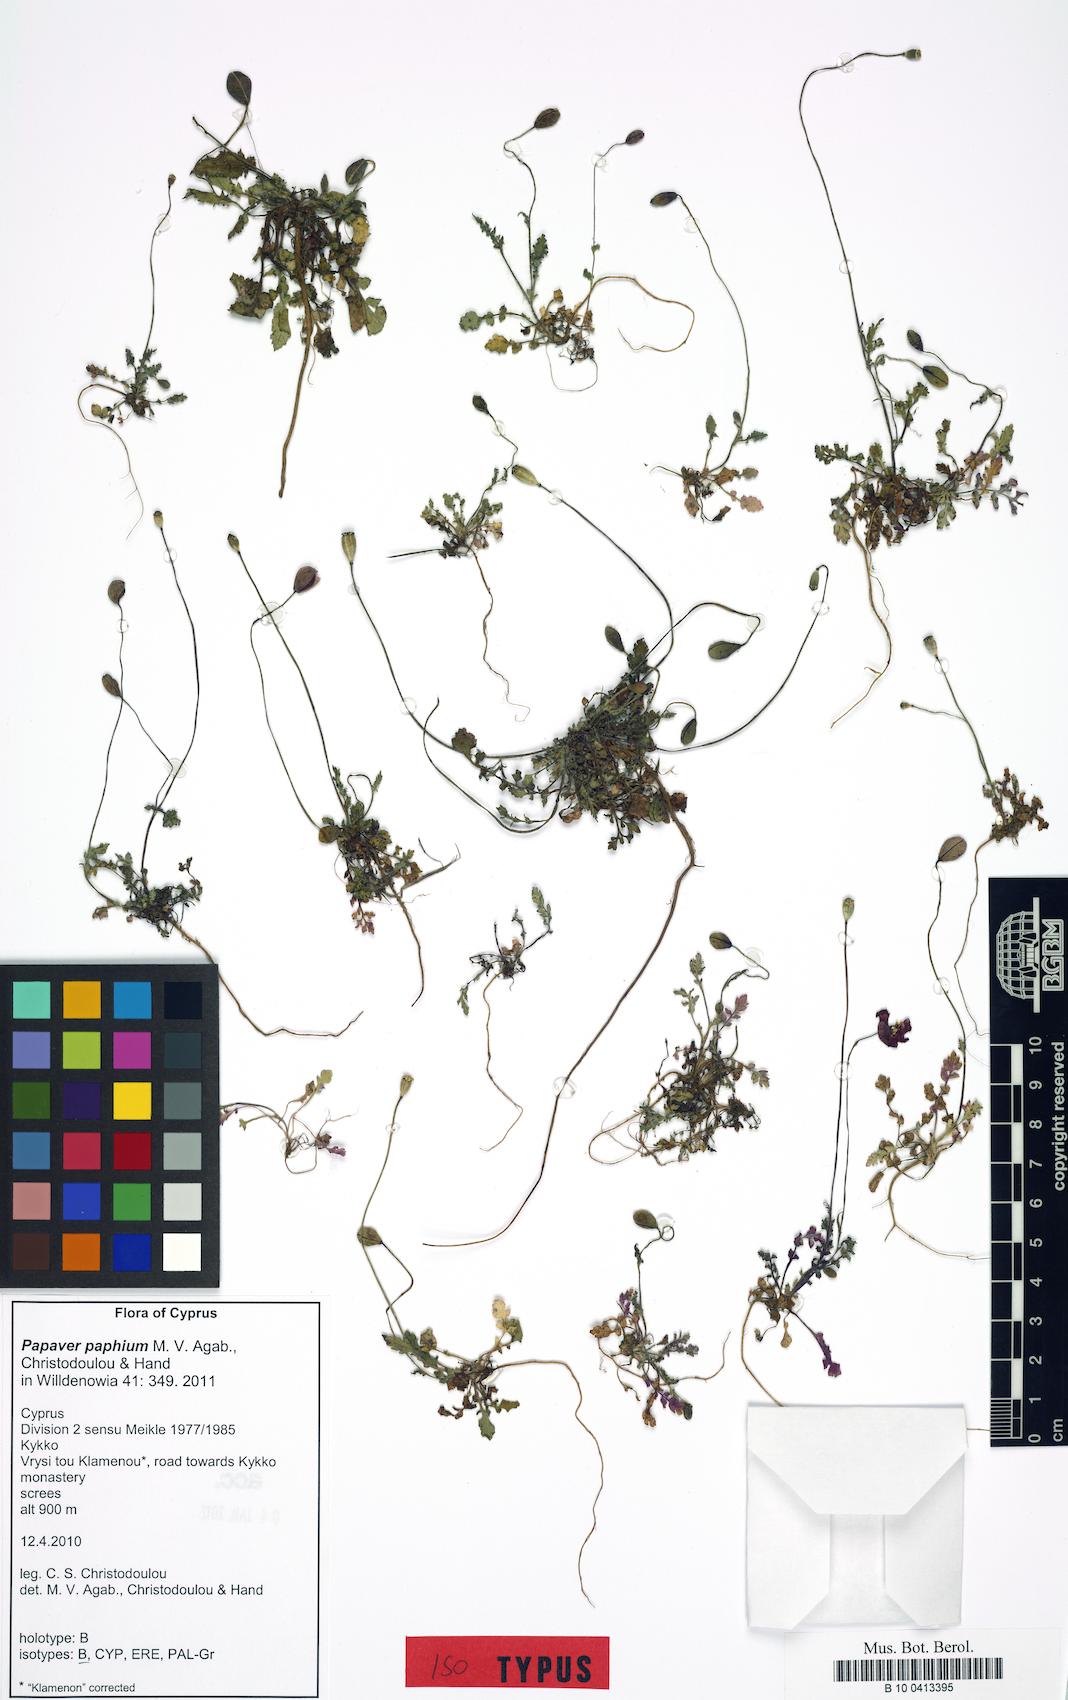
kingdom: Plantae
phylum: Tracheophyta
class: Magnoliopsida
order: Ranunculales
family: Papaveraceae
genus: Papaver
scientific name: Papaver paphium
